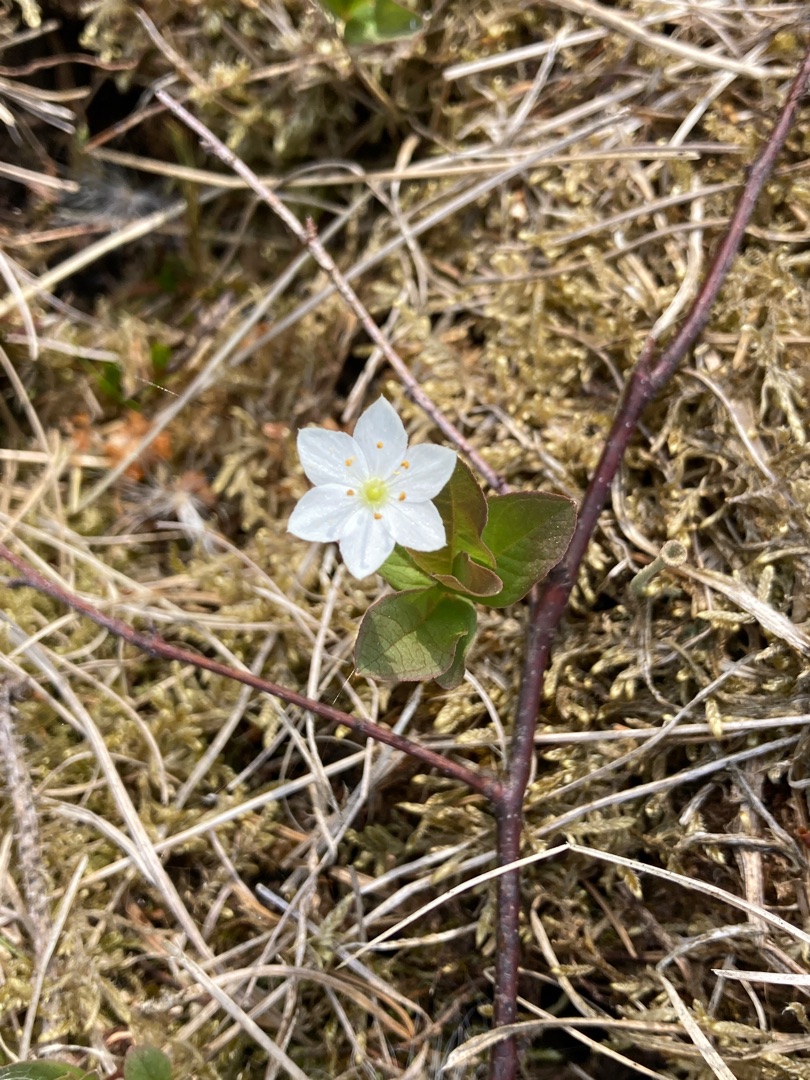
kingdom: Plantae
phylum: Tracheophyta
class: Magnoliopsida
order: Ericales
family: Primulaceae
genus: Lysimachia
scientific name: Lysimachia europaea
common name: Skovstjerne
